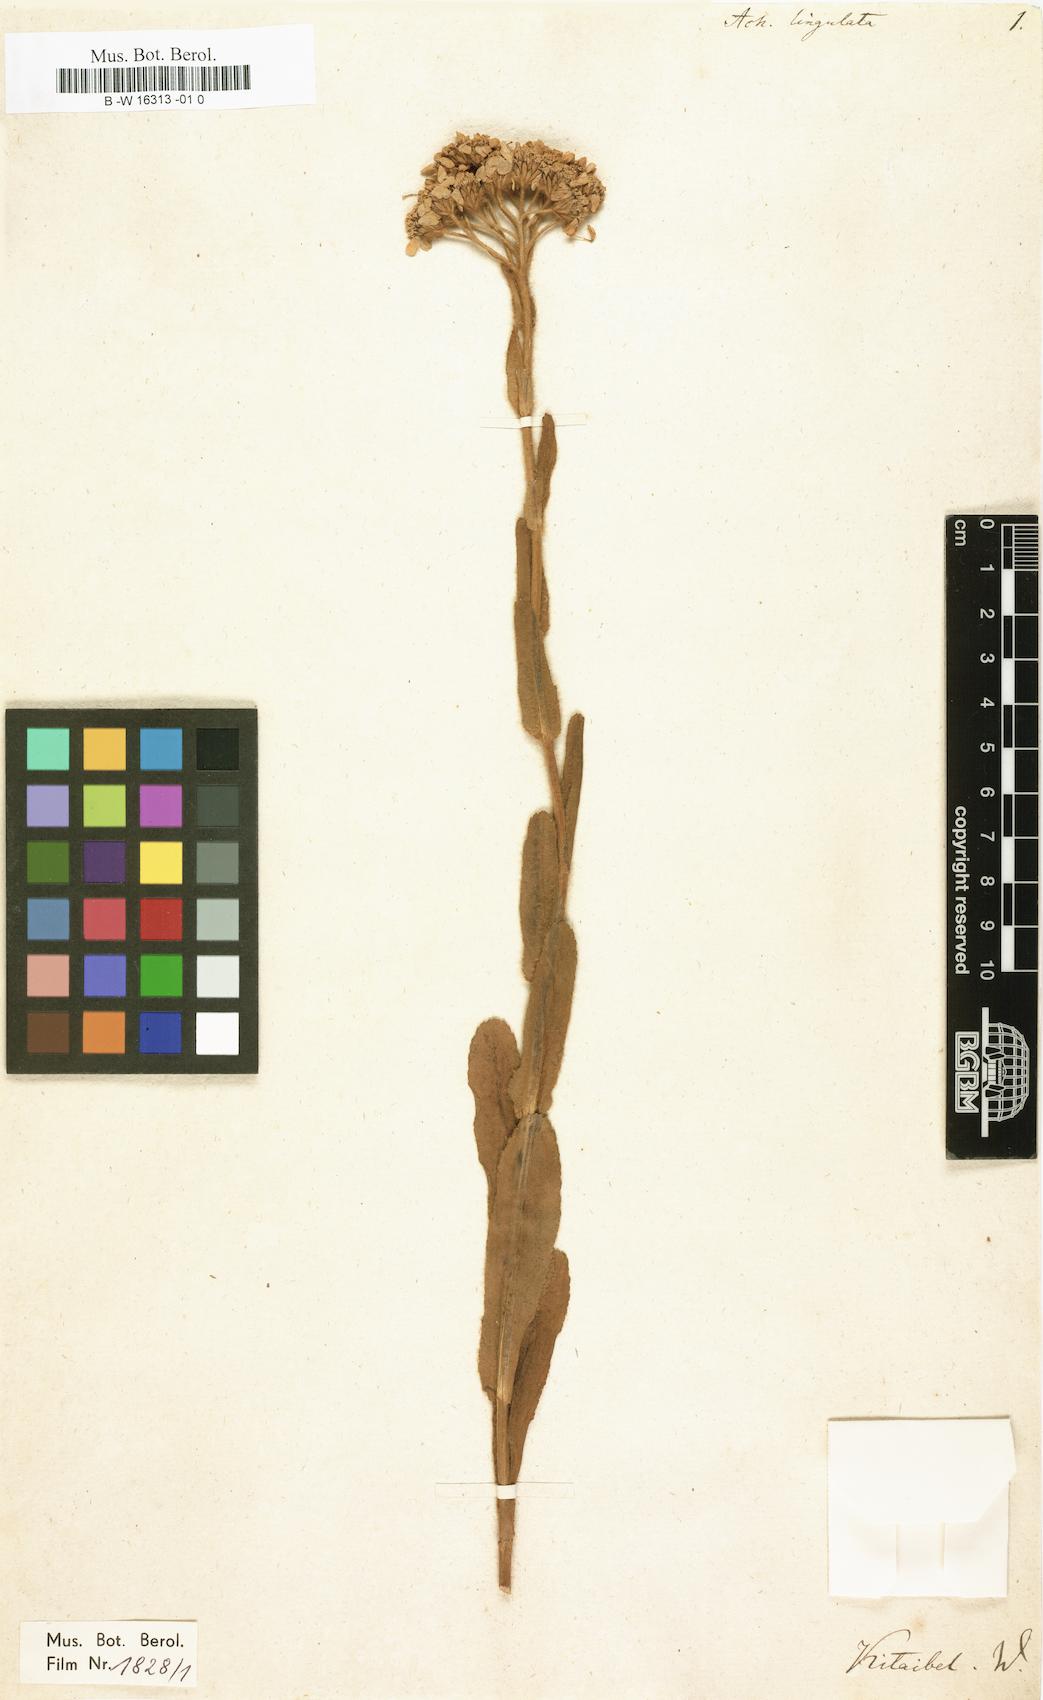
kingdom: Plantae
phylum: Tracheophyta
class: Magnoliopsida
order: Asterales
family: Asteraceae
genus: Achillea
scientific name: Achillea lingulata
